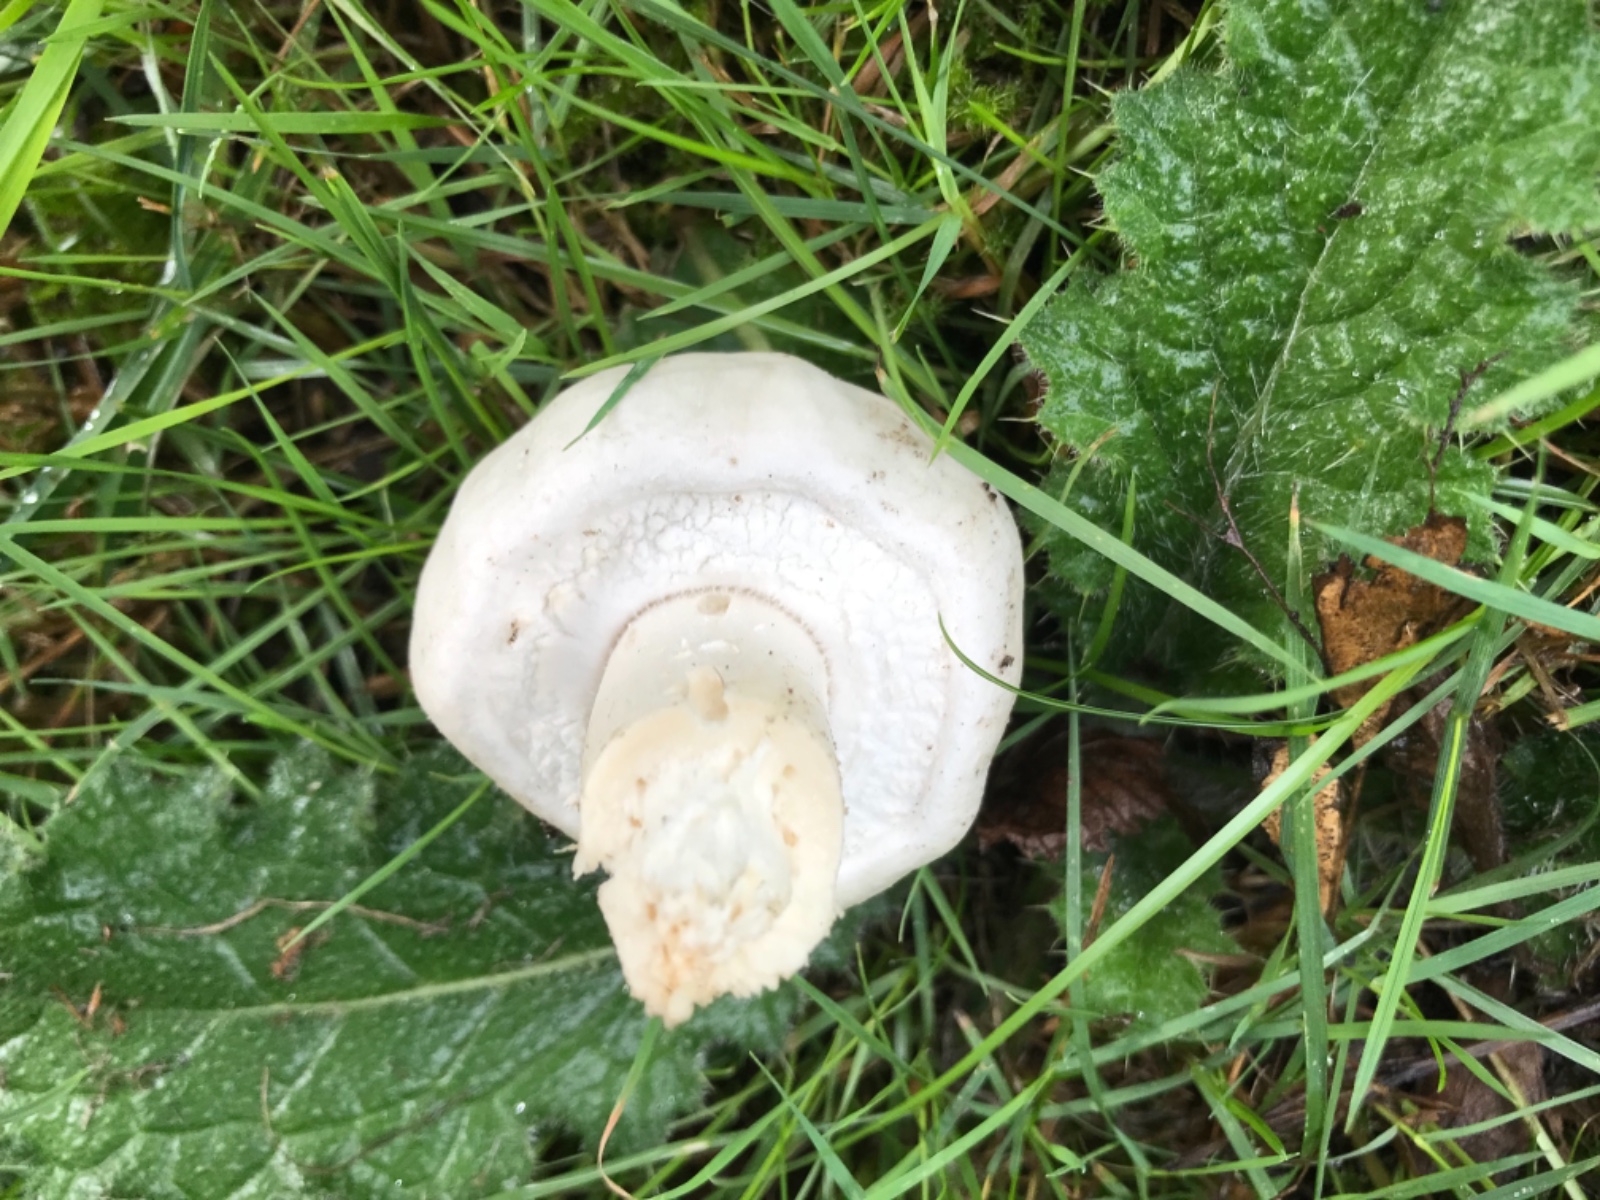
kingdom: Fungi
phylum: Basidiomycota
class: Agaricomycetes
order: Agaricales
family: Agaricaceae
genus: Agaricus
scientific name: Agaricus arvensis
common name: ager-champignon
